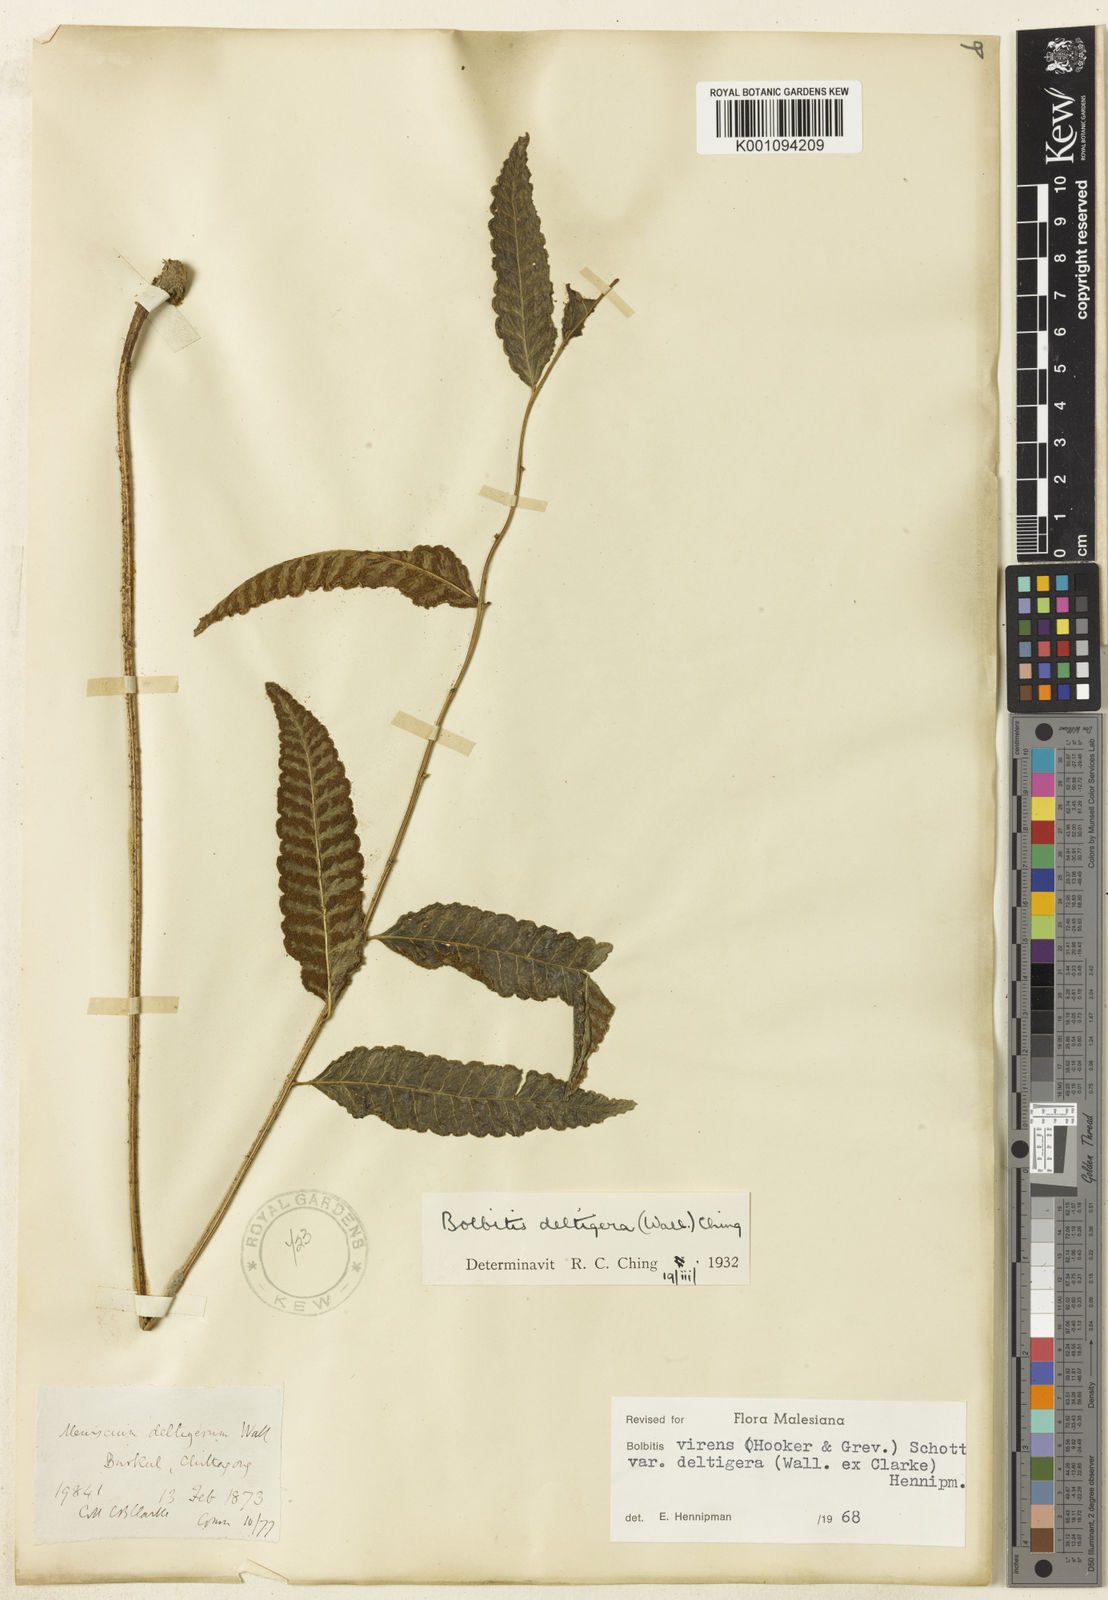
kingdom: Plantae
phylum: Tracheophyta
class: Polypodiopsida
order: Polypodiales
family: Dryopteridaceae
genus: Bolbitis
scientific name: Bolbitis deltigera
